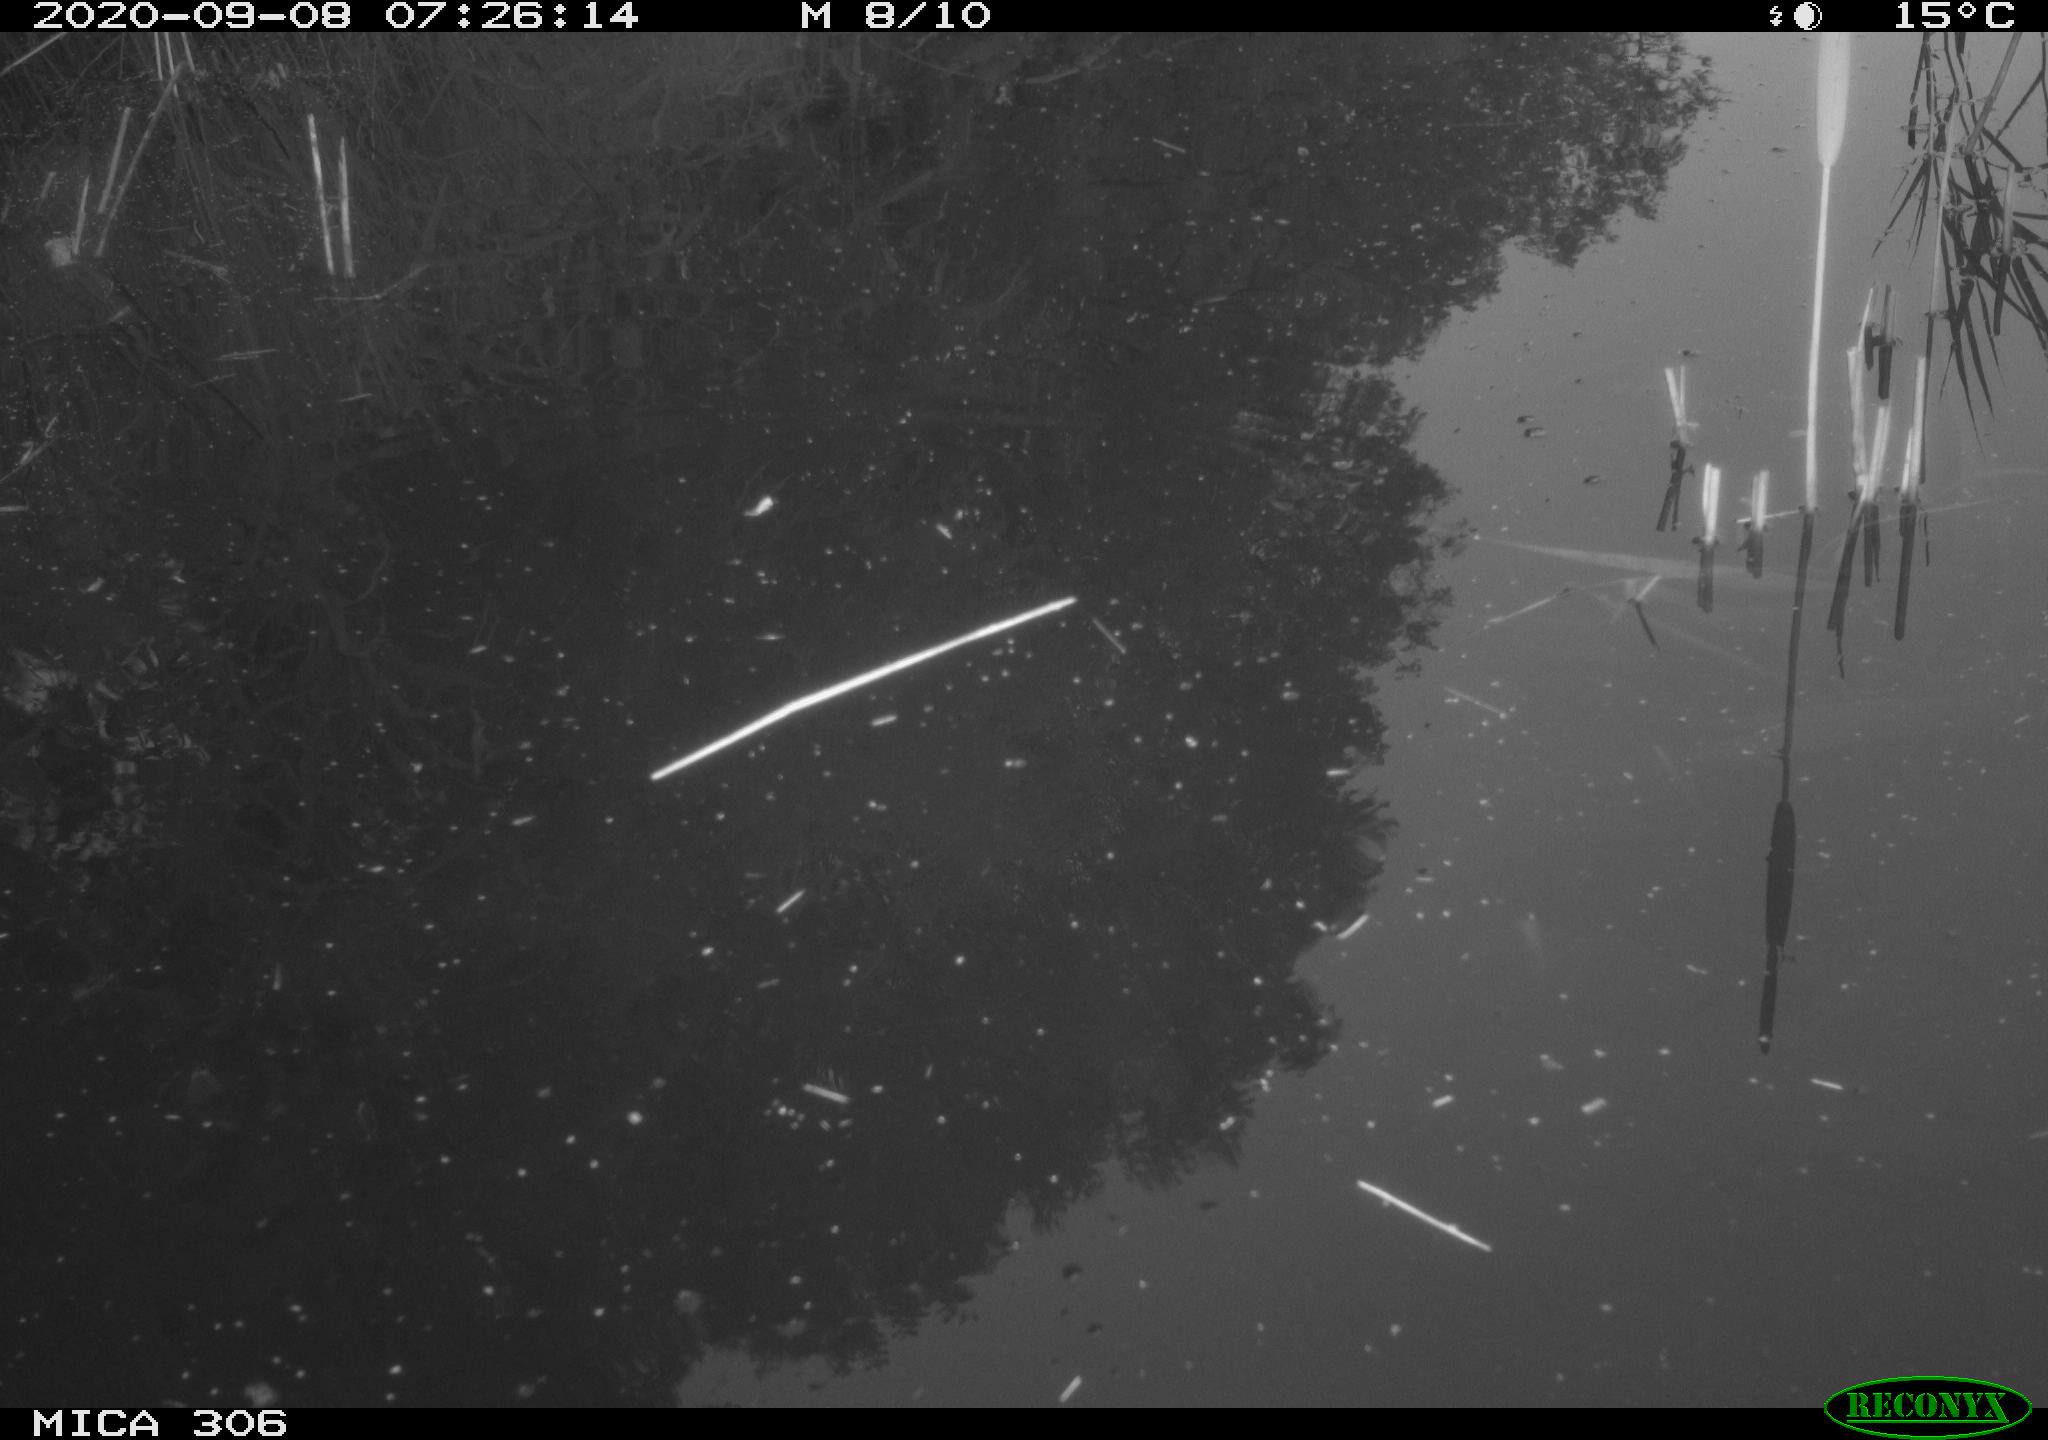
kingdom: Animalia
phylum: Chordata
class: Aves
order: Gruiformes
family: Rallidae
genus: Gallinula
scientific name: Gallinula chloropus
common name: Common moorhen
